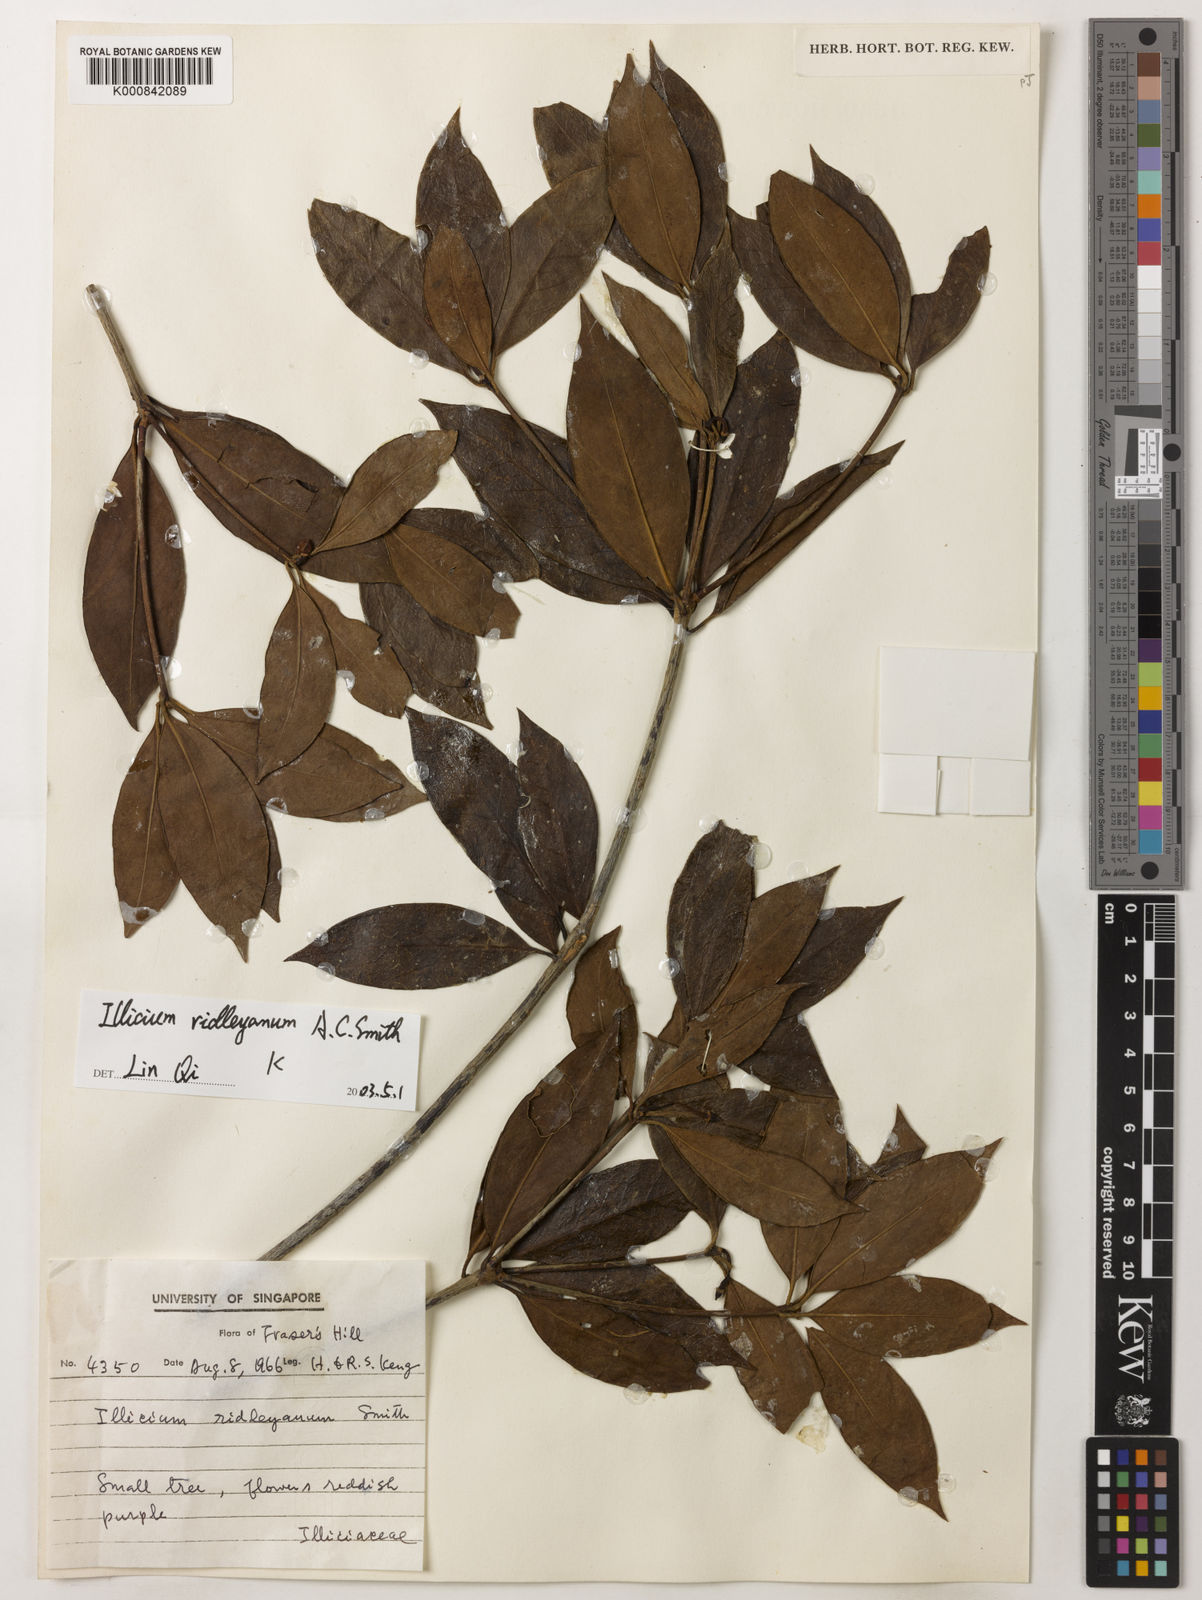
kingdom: Plantae
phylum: Tracheophyta
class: Magnoliopsida
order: Austrobaileyales
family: Schisandraceae
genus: Illicium
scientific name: Illicium ridleyanum
